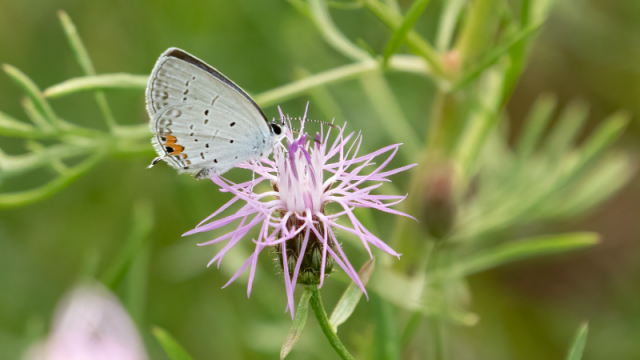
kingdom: Animalia
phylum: Arthropoda
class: Insecta
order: Lepidoptera
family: Lycaenidae
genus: Elkalyce
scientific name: Elkalyce comyntas
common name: Eastern Tailed-Blue
